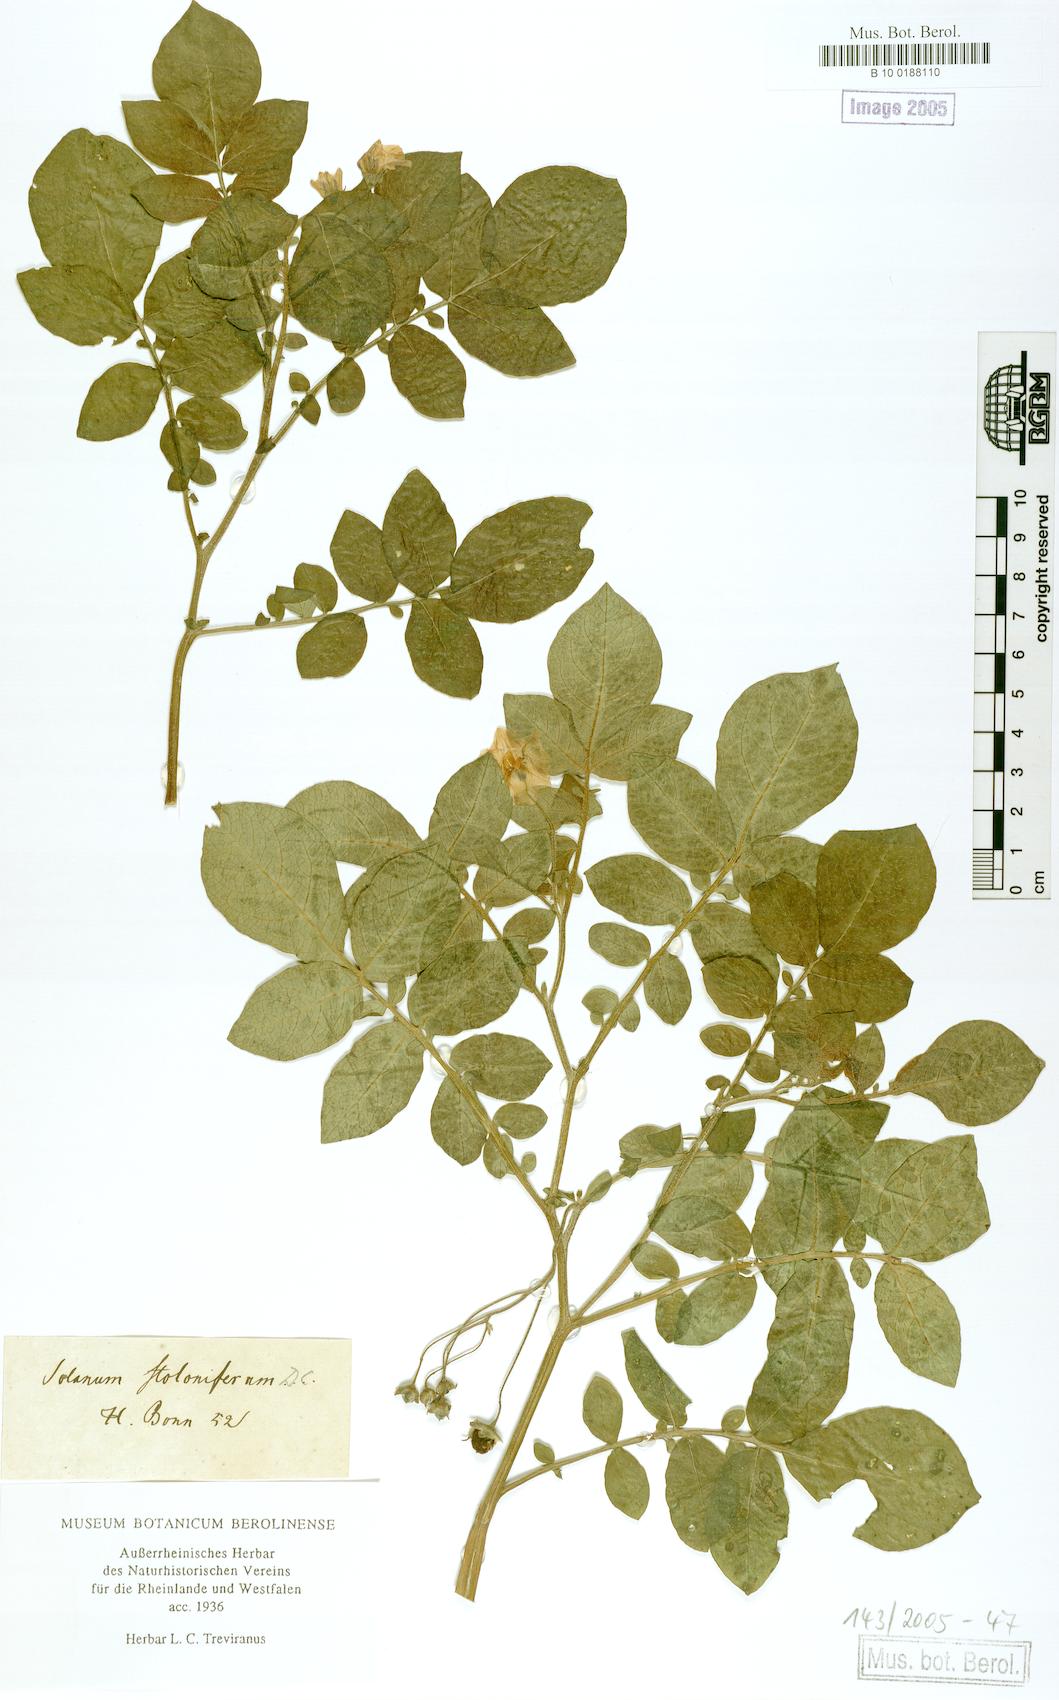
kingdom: Plantae
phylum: Tracheophyta
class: Magnoliopsida
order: Solanales
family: Solanaceae
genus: Solanum
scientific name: Solanum stoloniferum
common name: Fendler's nighshade
